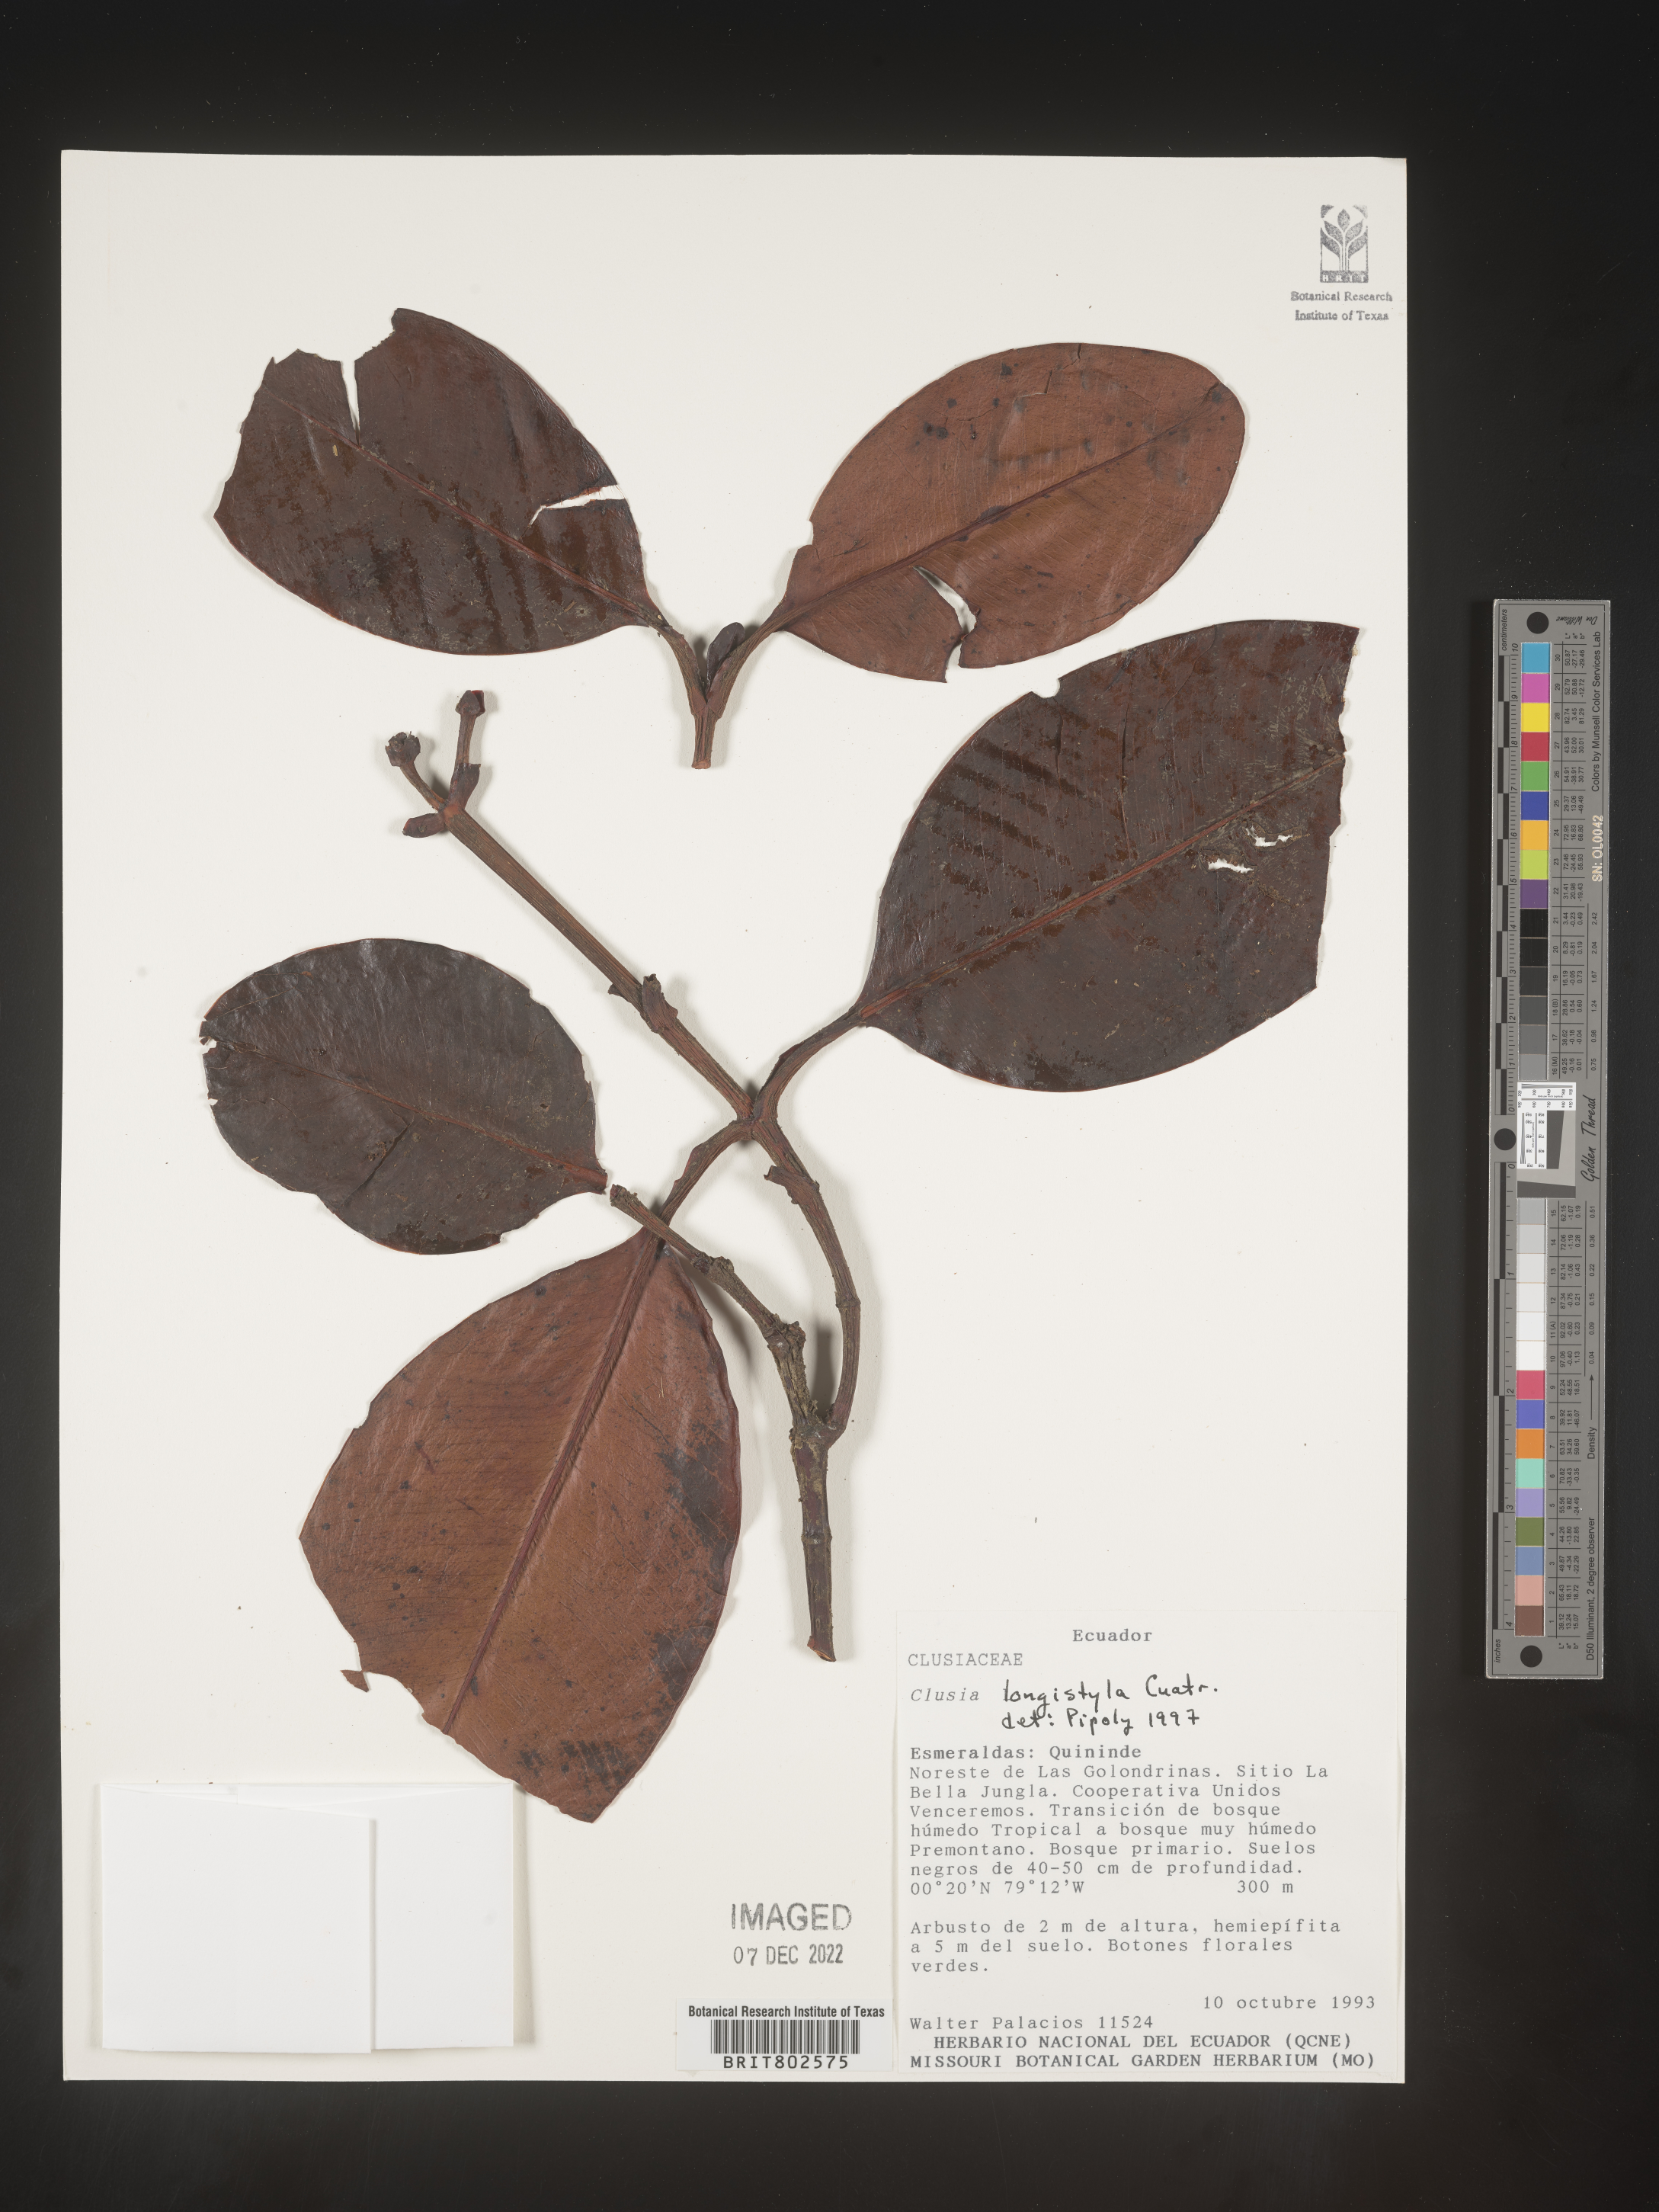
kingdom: Plantae
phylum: Tracheophyta
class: Magnoliopsida
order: Malpighiales
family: Clusiaceae
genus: Clusia
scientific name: Clusia rotundata
